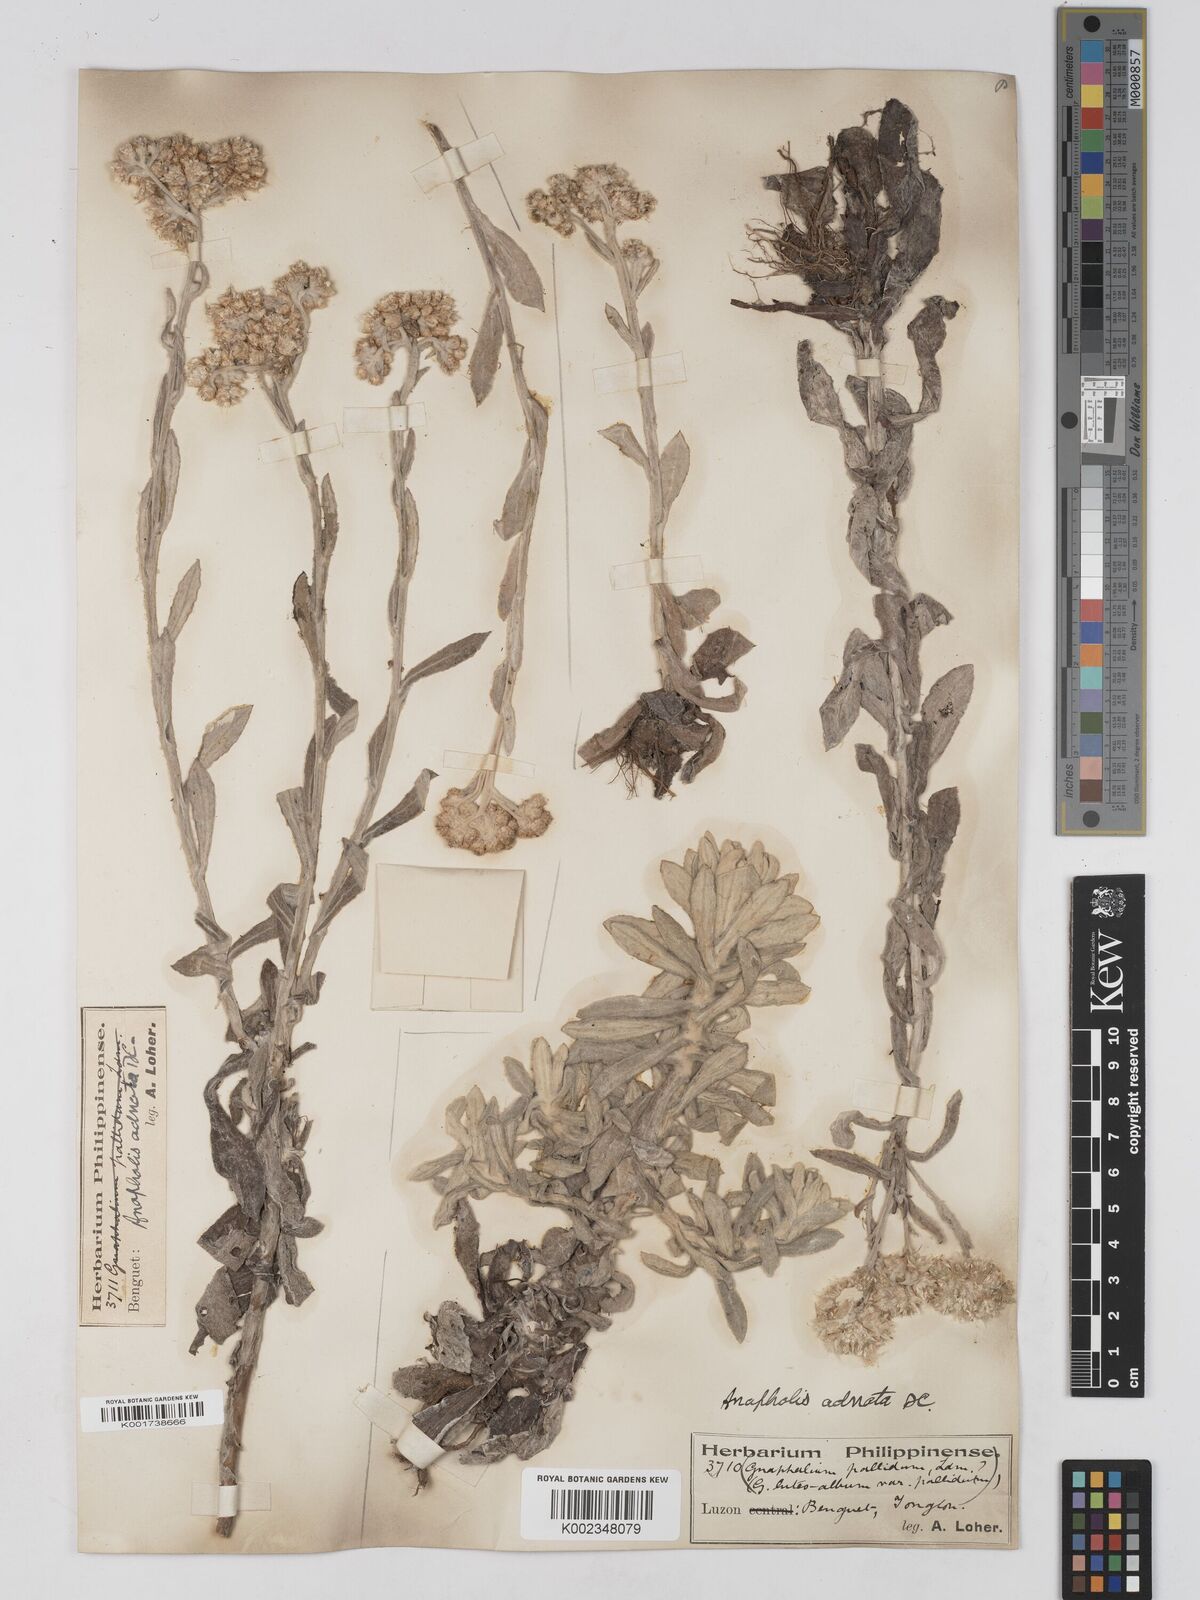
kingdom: Plantae
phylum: Tracheophyta
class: Magnoliopsida
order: Asterales
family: Asteraceae
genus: Pseudognaphalium
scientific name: Pseudognaphalium adnatum
